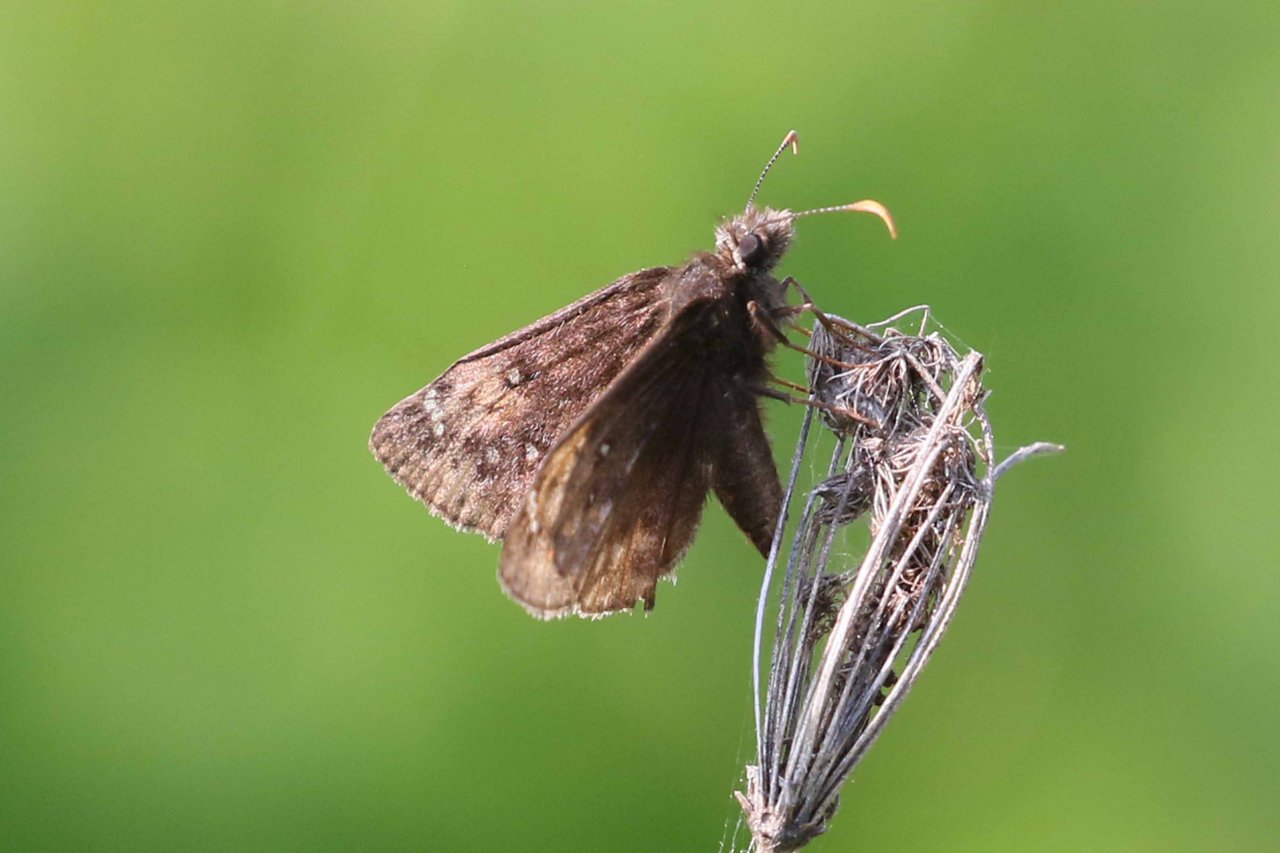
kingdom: Animalia
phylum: Arthropoda
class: Insecta
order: Lepidoptera
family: Hesperiidae
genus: Gesta
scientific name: Gesta
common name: Juvenal's Duskywing
